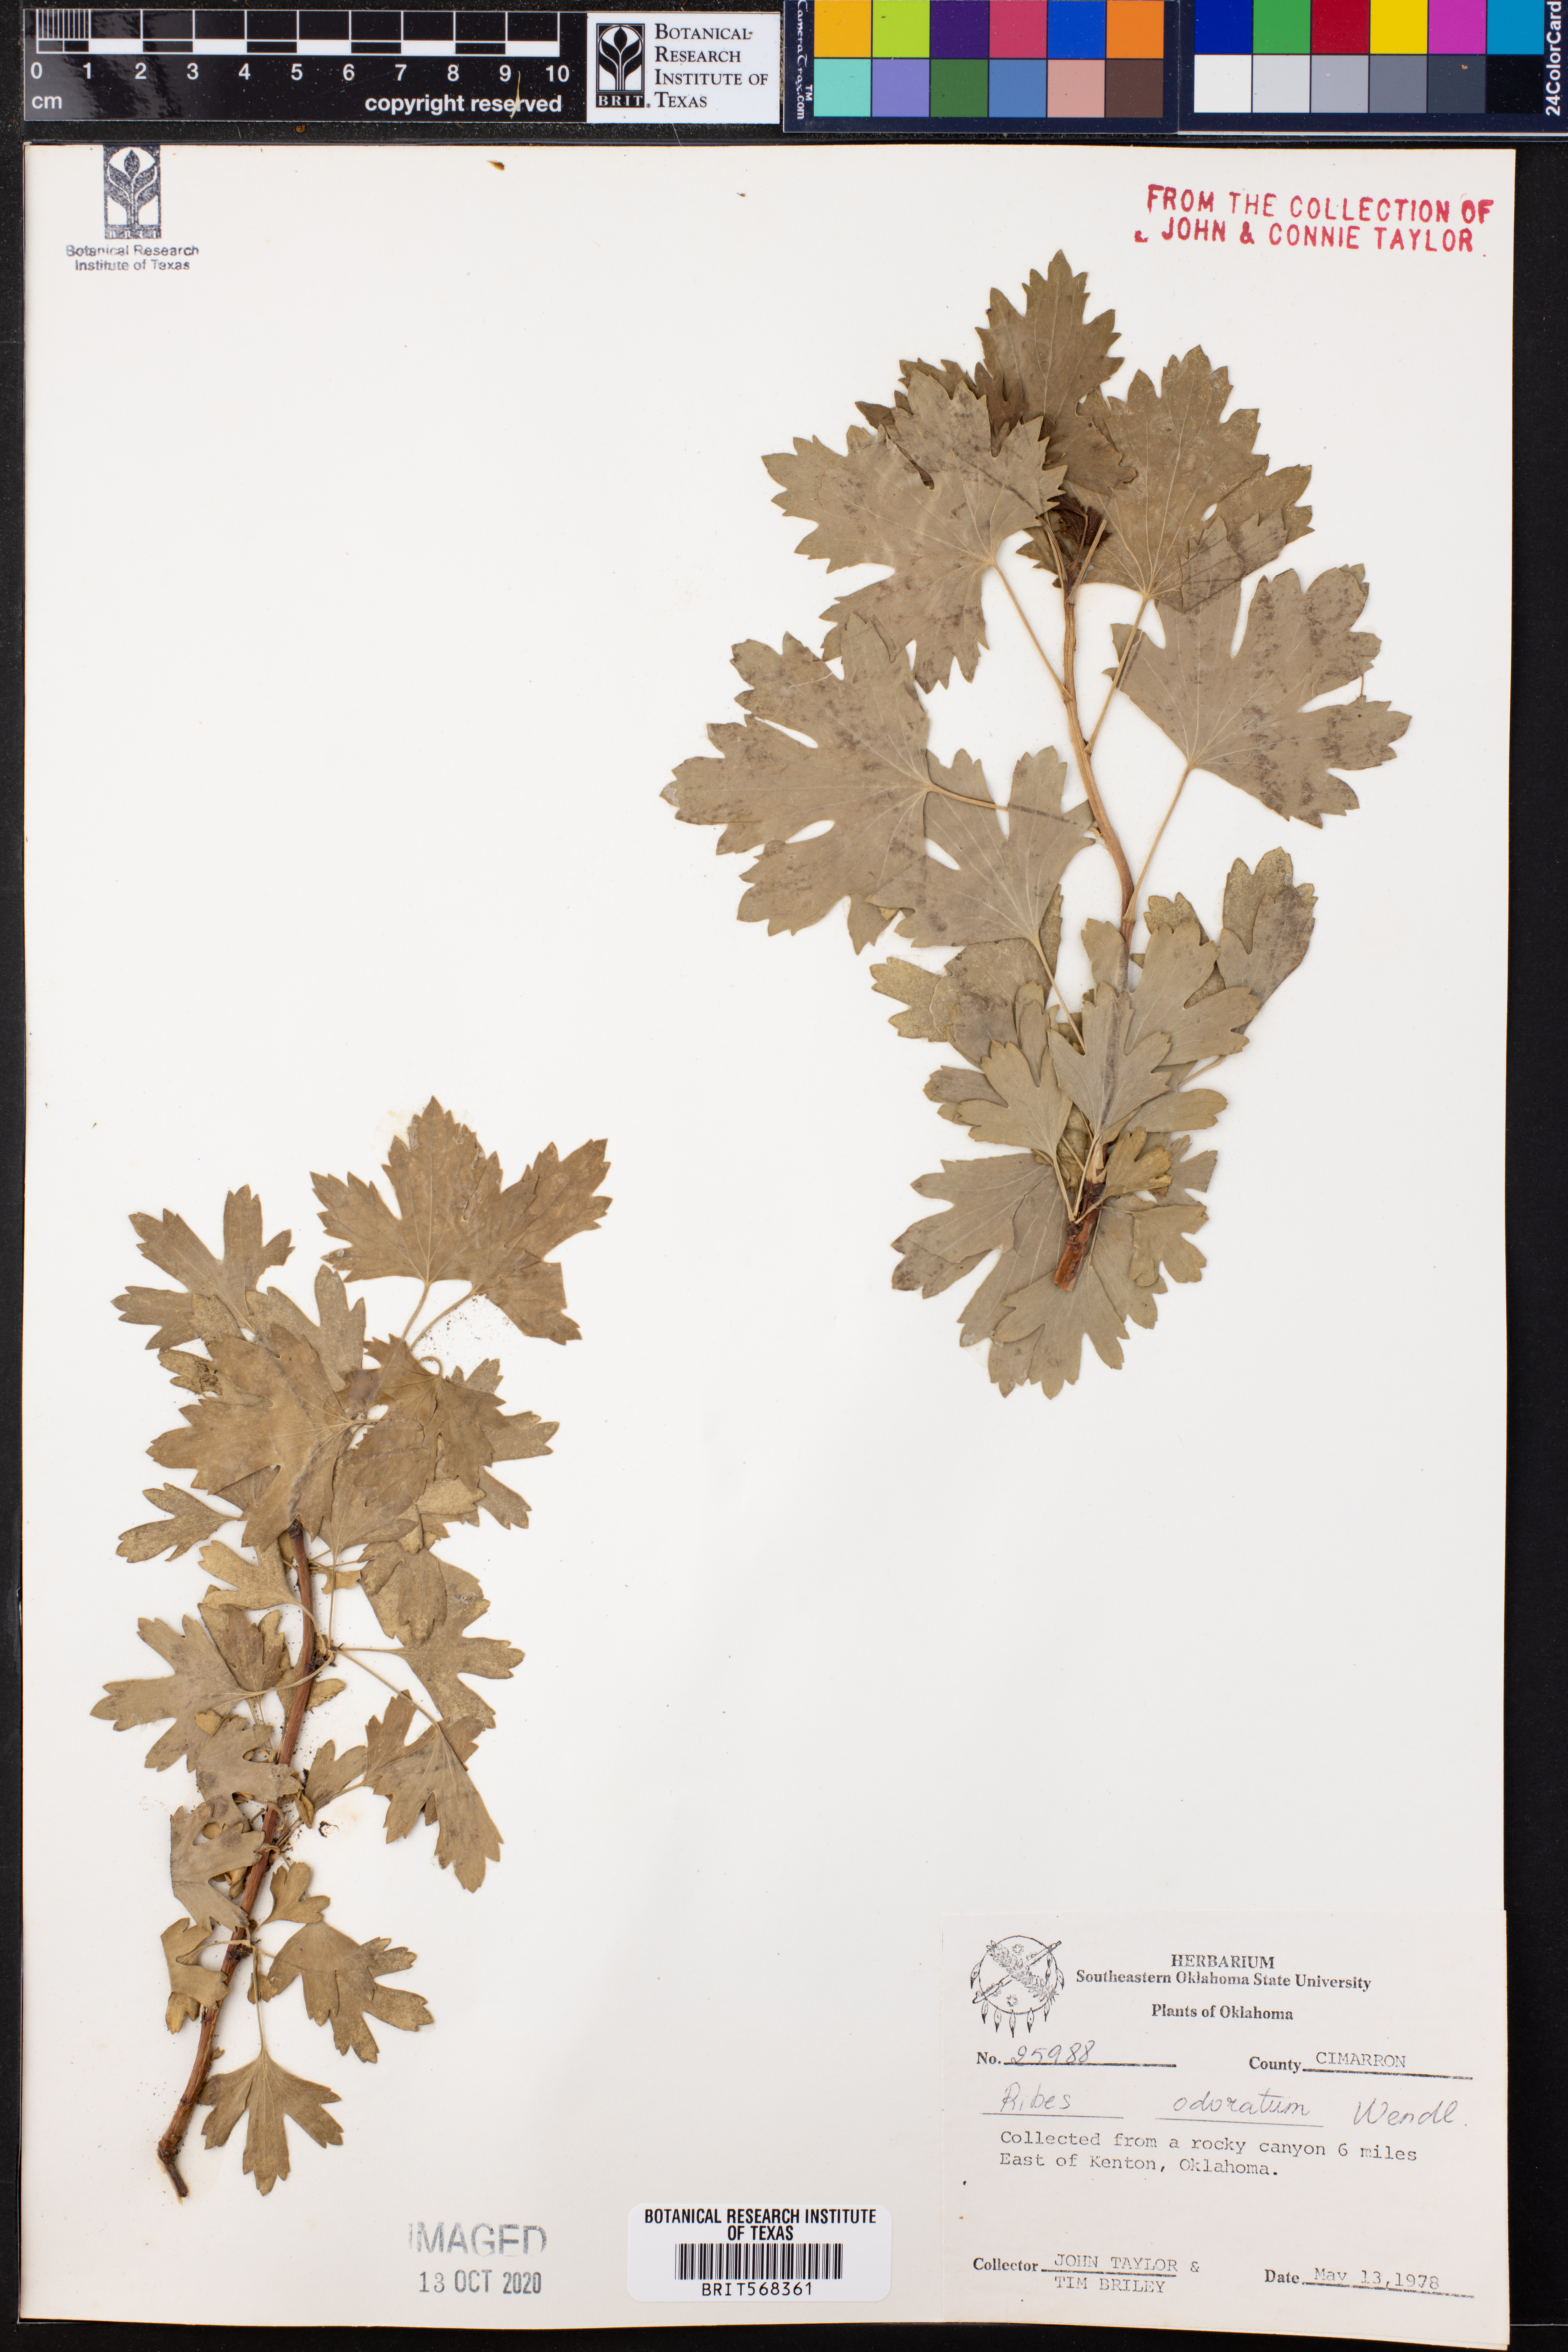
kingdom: Plantae
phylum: Tracheophyta
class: Magnoliopsida
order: Saxifragales
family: Grossulariaceae
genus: Ribes
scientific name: Ribes aureum
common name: Golden currant
